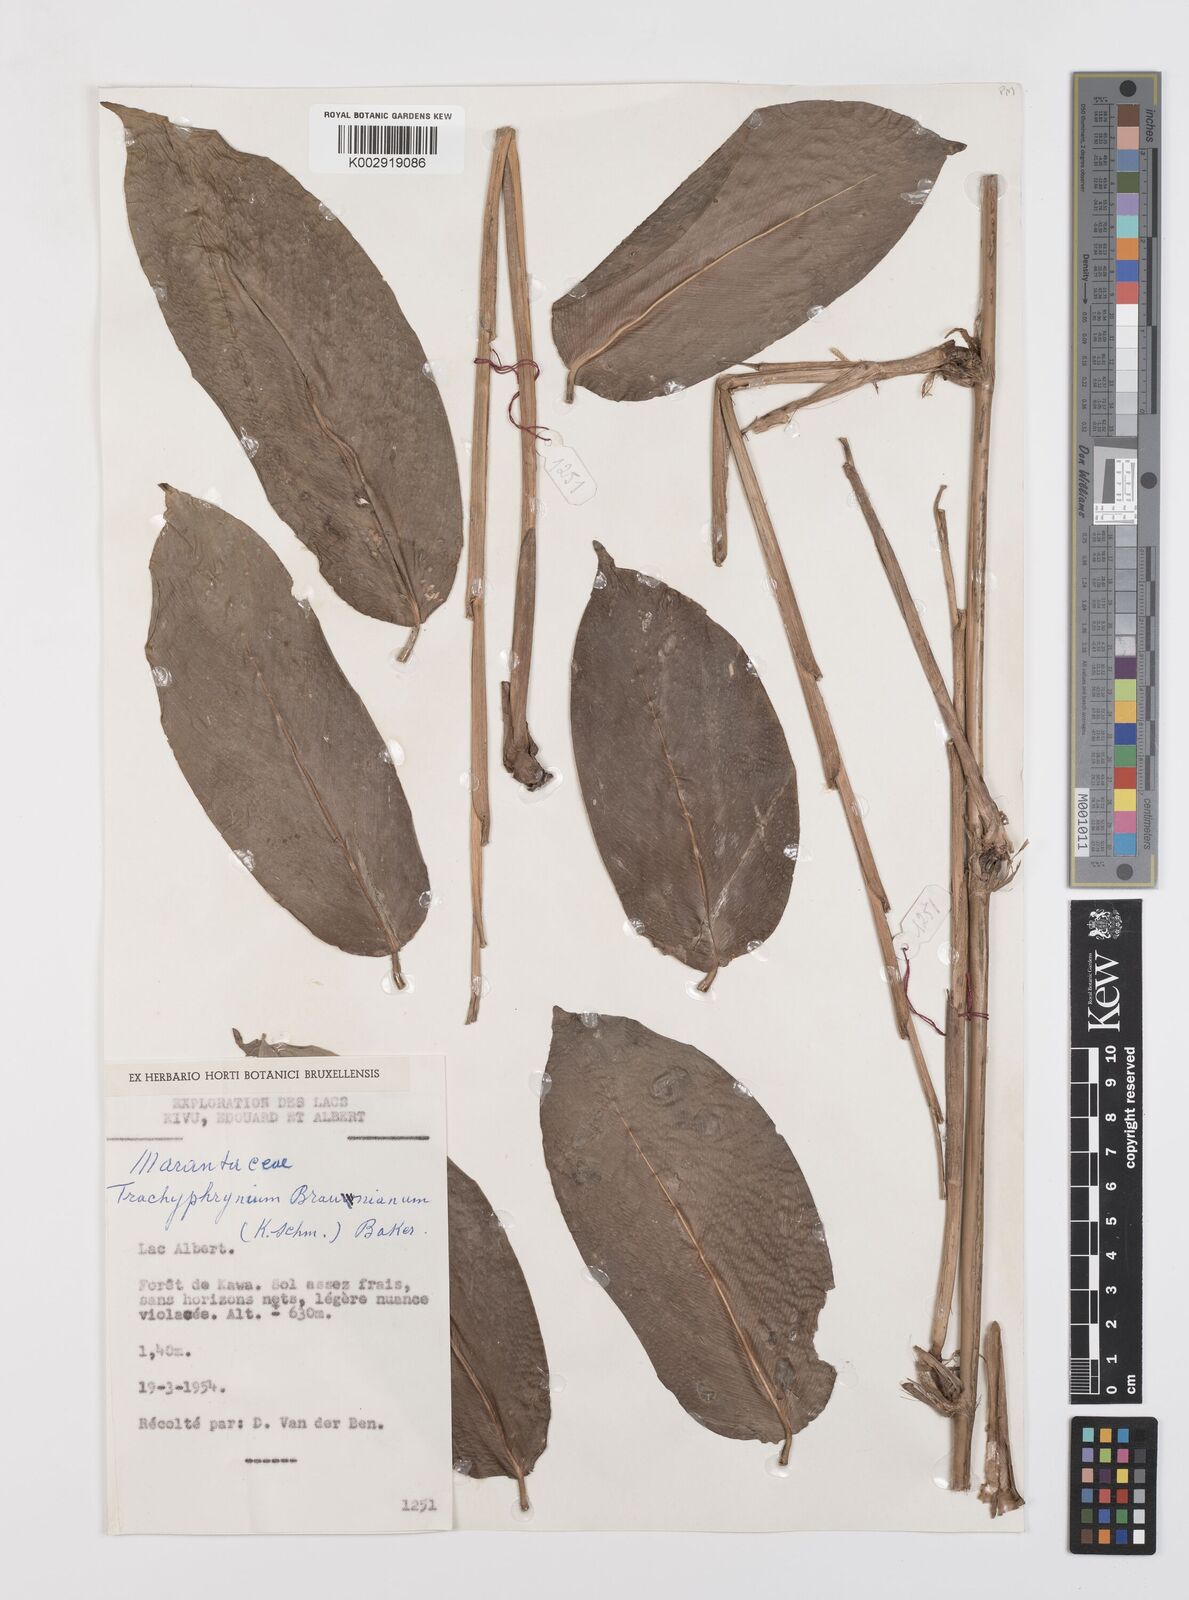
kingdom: Plantae
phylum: Tracheophyta
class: Liliopsida
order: Zingiberales
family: Marantaceae
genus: Trachyphrynium
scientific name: Trachyphrynium braunianum
